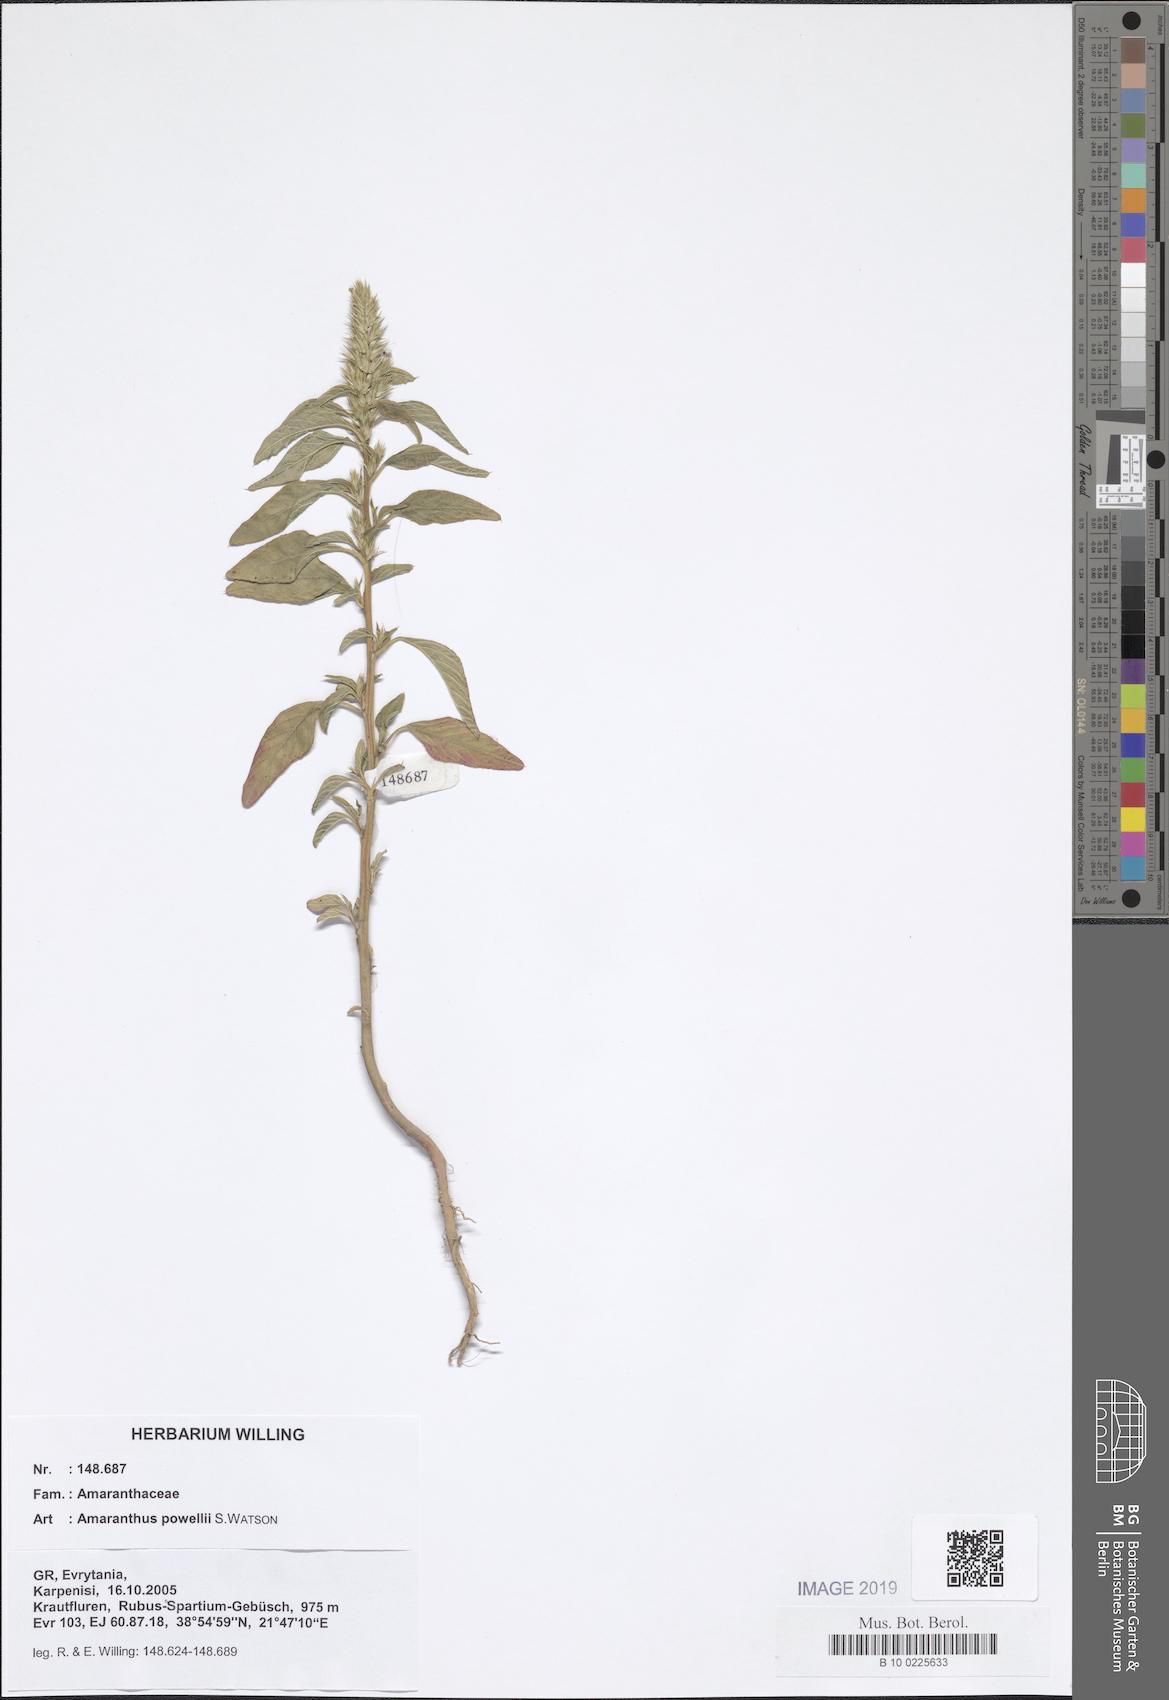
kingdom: Plantae
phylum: Tracheophyta
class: Magnoliopsida
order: Caryophyllales
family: Amaranthaceae
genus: Amaranthus
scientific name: Amaranthus powellii
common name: Powell's amaranth
